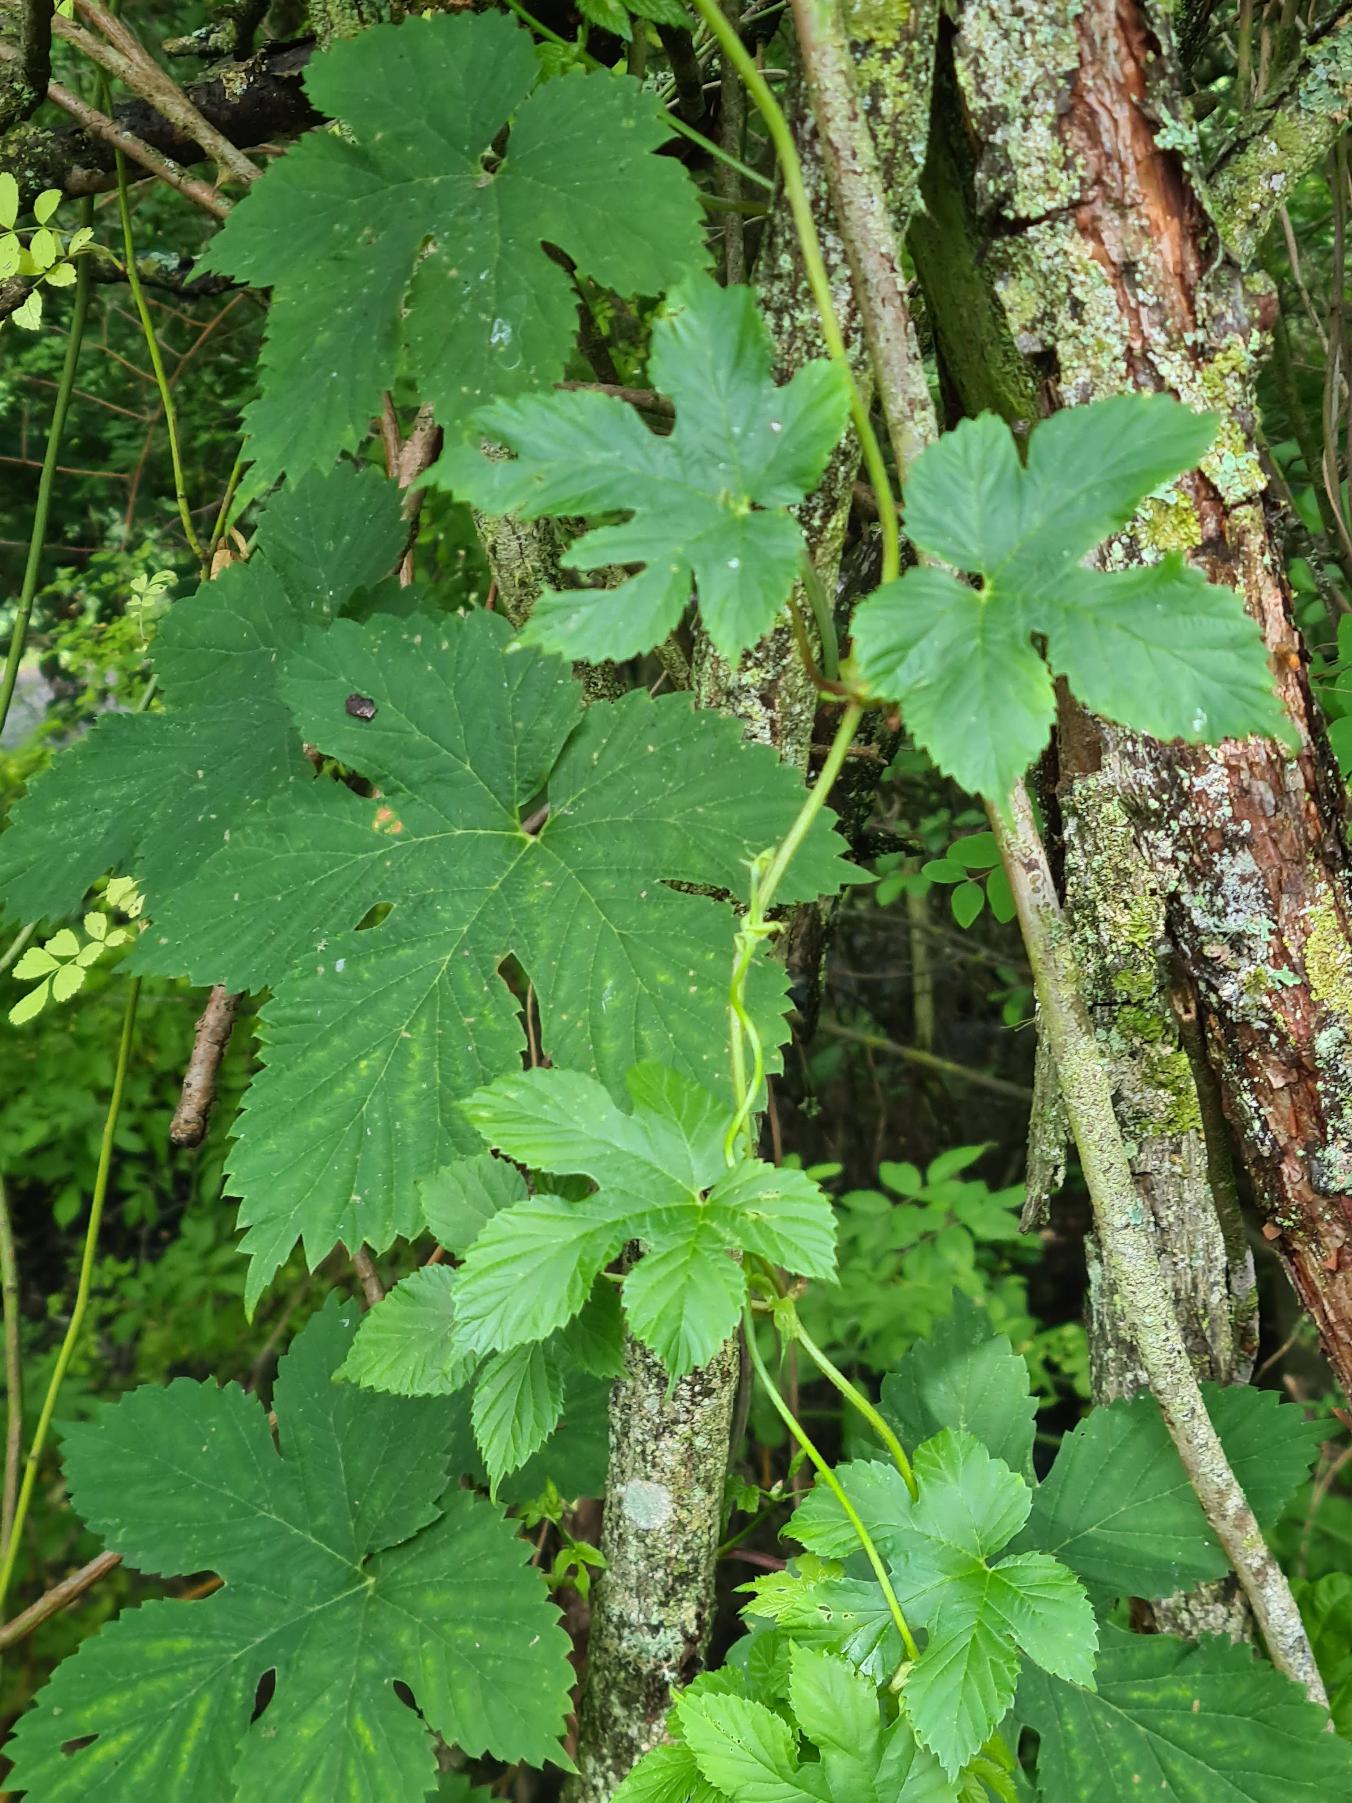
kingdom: Plantae
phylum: Tracheophyta
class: Magnoliopsida
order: Rosales
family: Cannabaceae
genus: Humulus
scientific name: Humulus lupulus
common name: Humle
